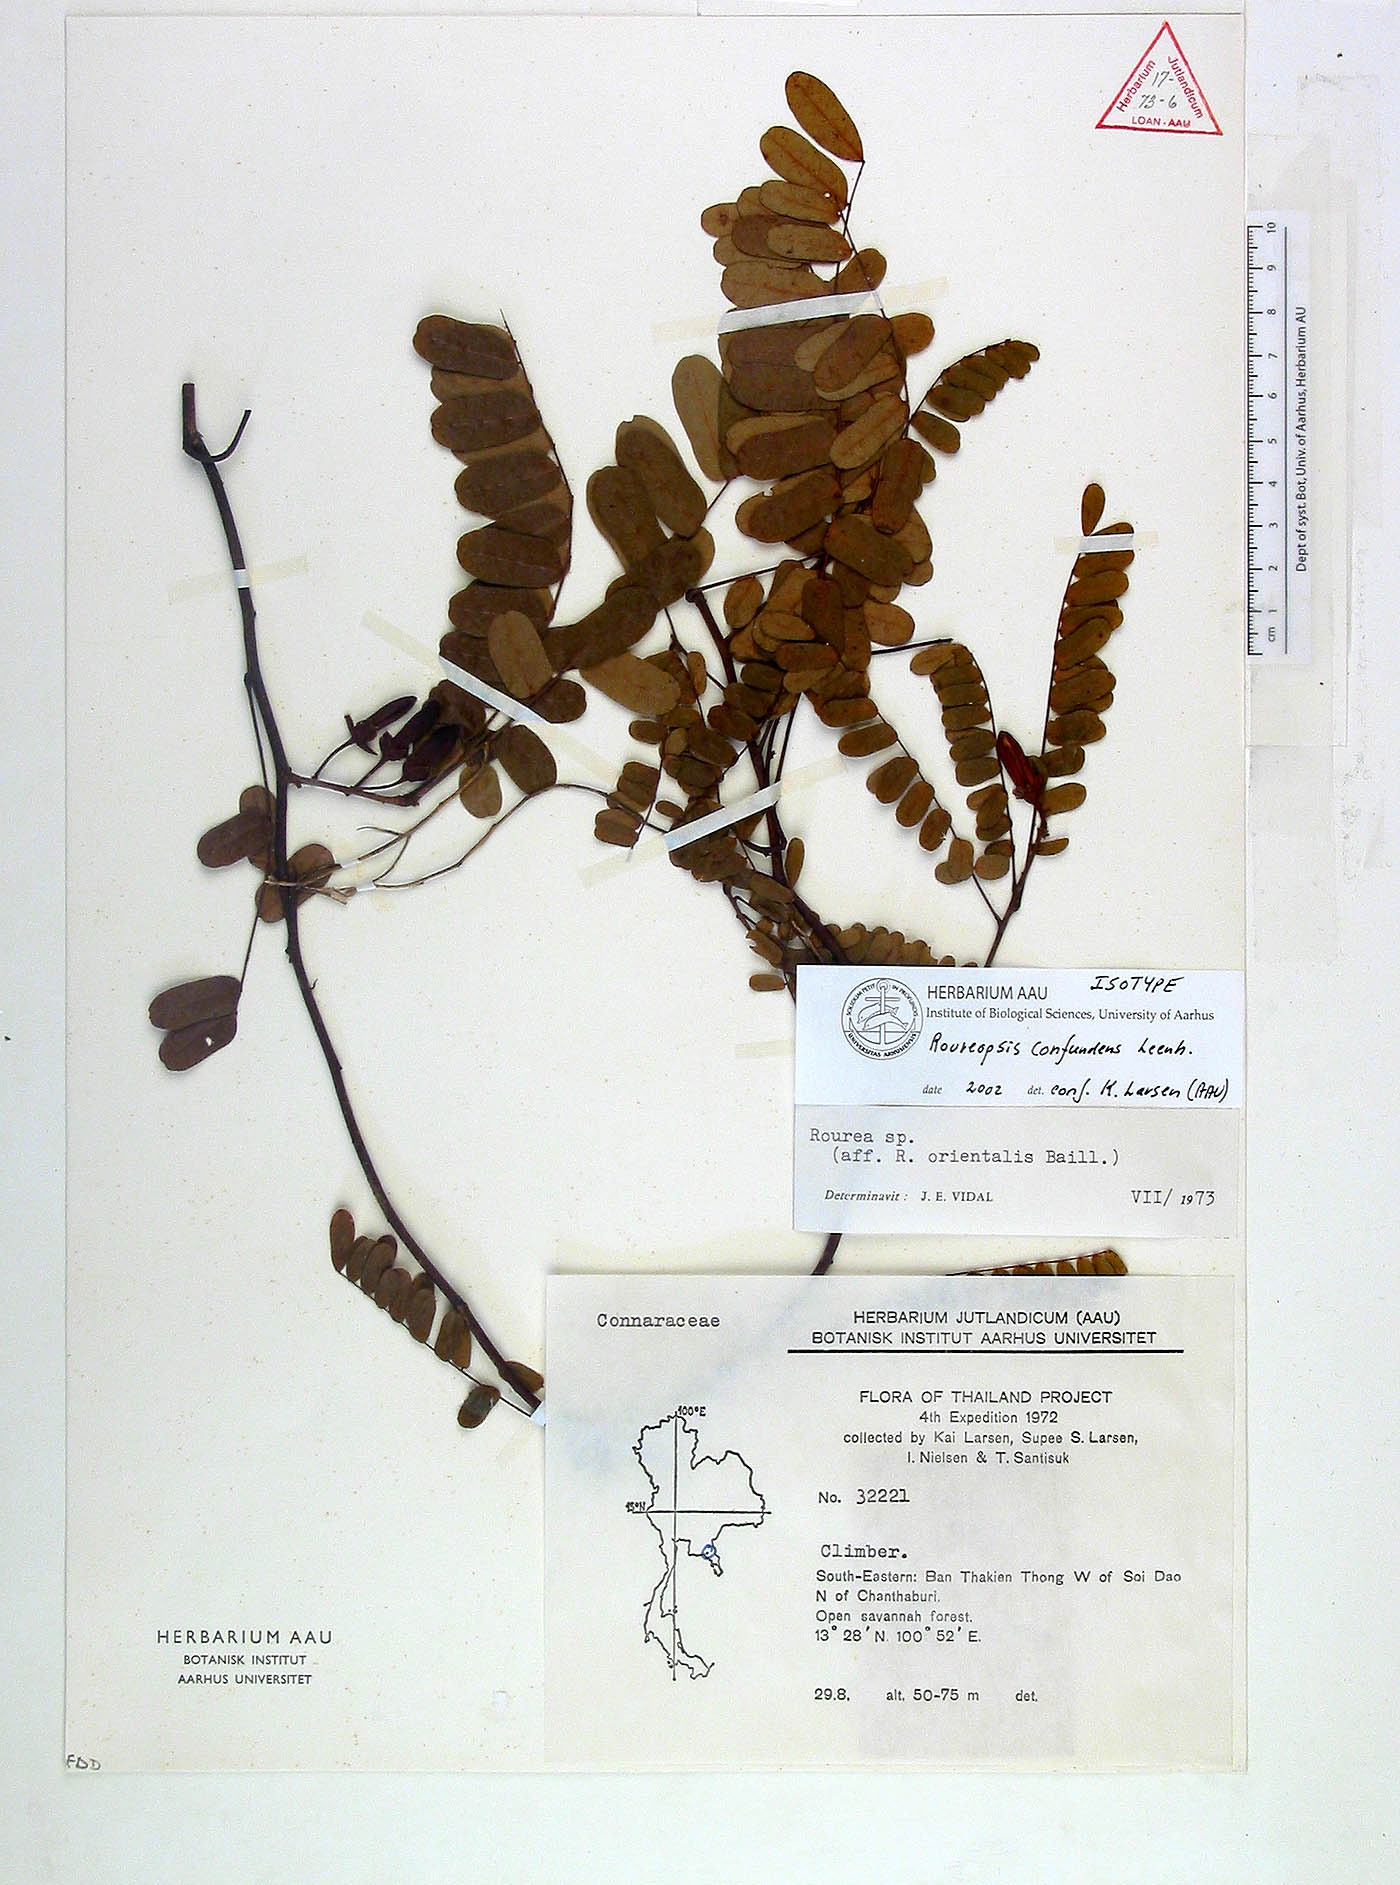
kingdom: Plantae
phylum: Tracheophyta
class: Magnoliopsida
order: Oxalidales
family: Connaraceae
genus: Rourea
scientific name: Rourea confundens
